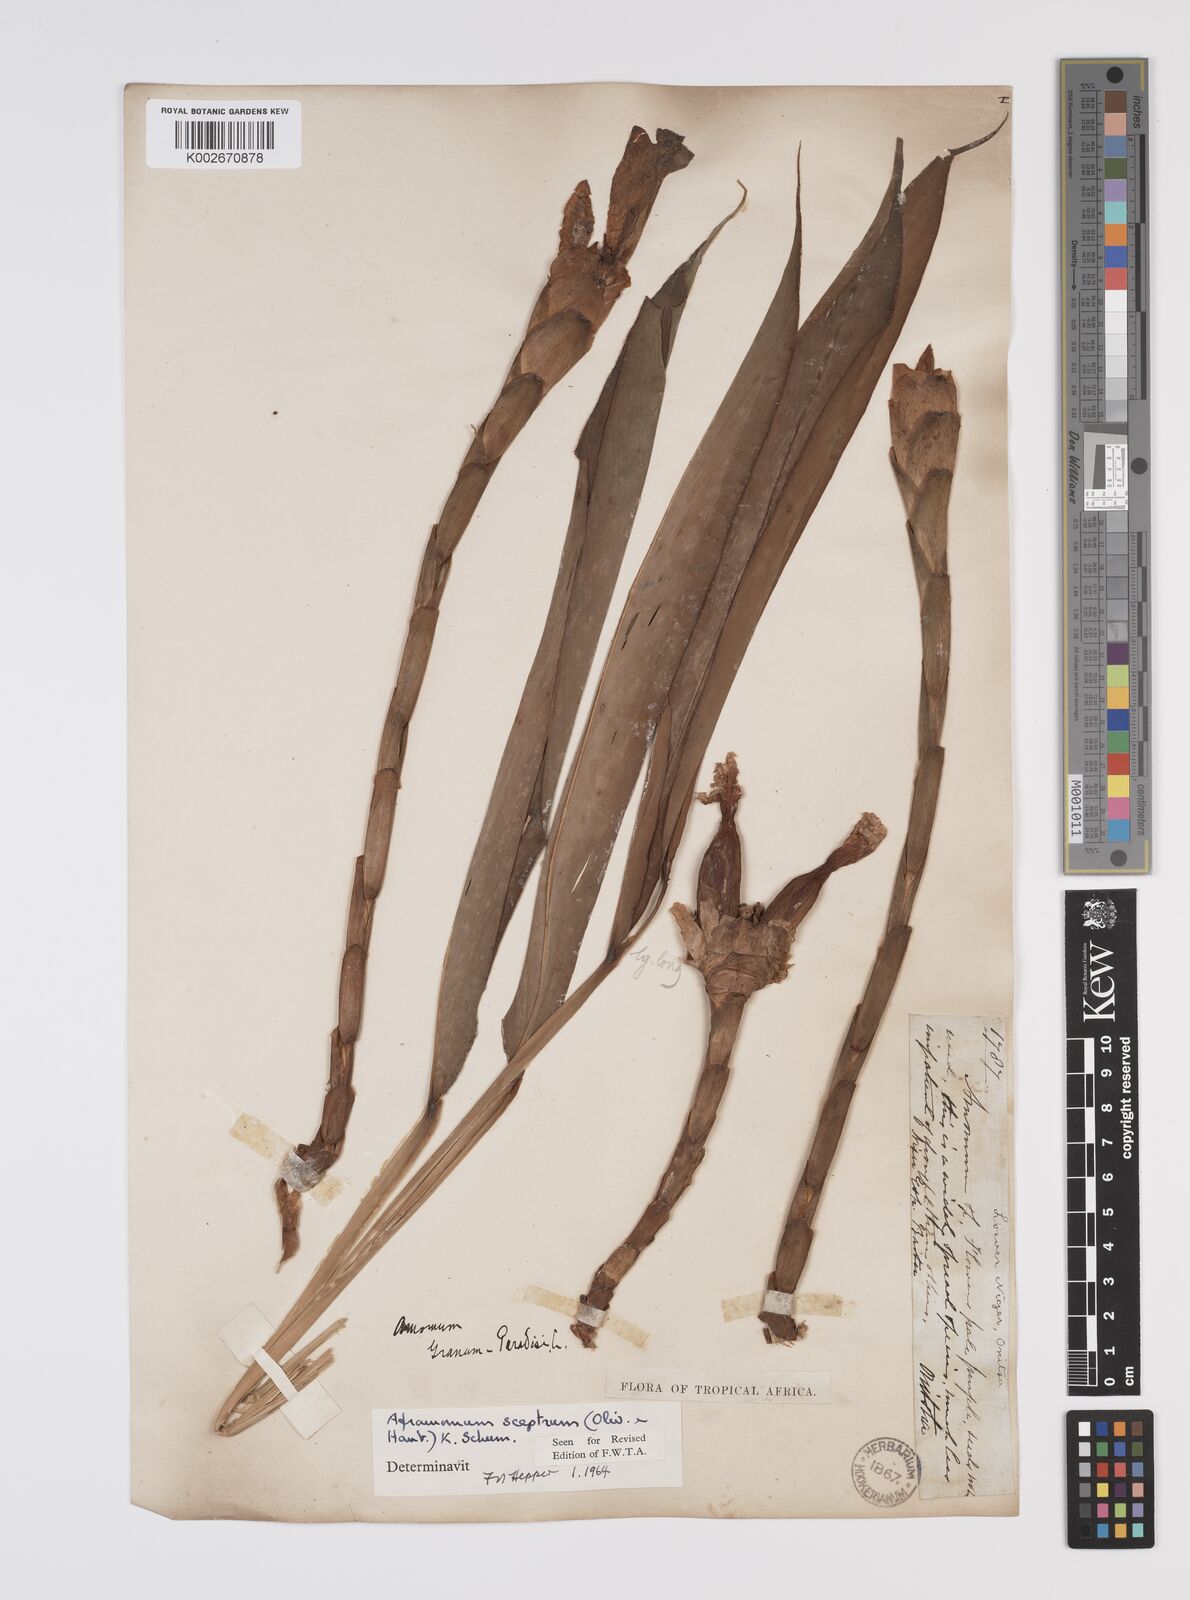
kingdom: Plantae
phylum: Tracheophyta
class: Liliopsida
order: Zingiberales
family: Zingiberaceae
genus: Aframomum
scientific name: Aframomum cereum
